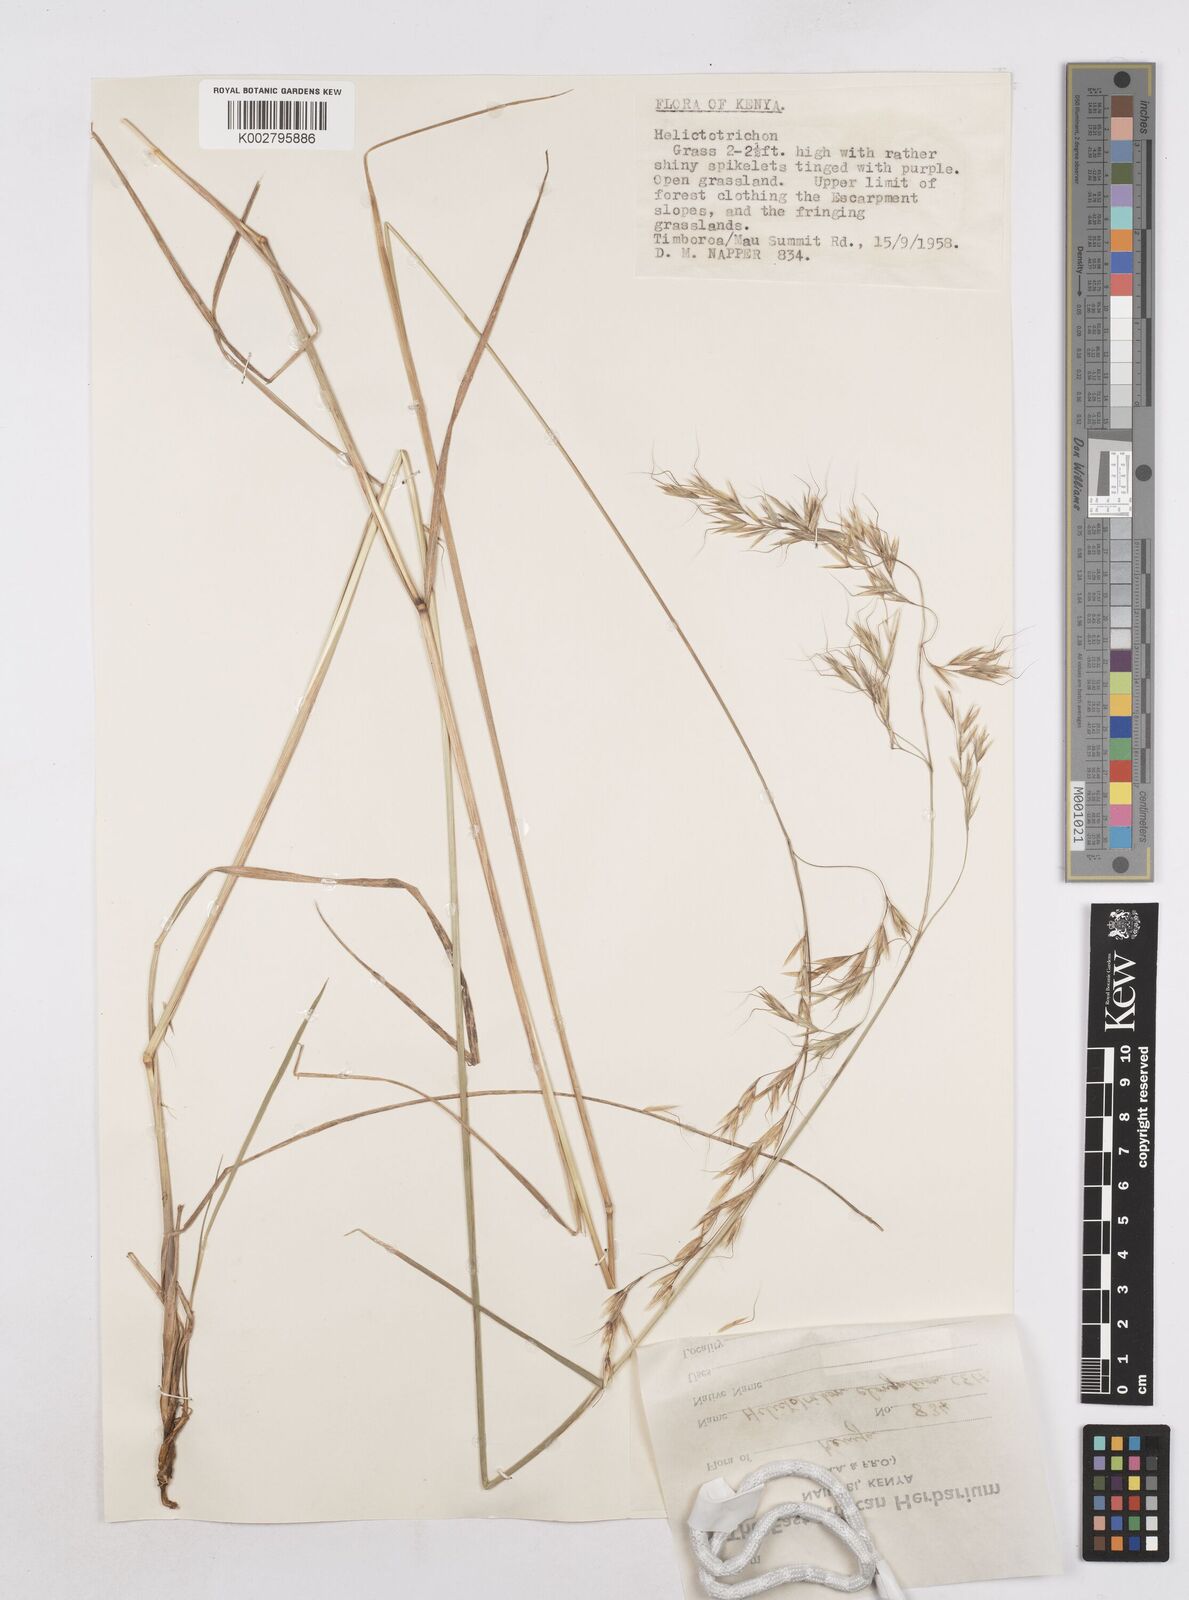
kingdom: Plantae
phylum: Tracheophyta
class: Liliopsida
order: Poales
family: Poaceae
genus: Trisetopsis
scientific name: Trisetopsis elongata
